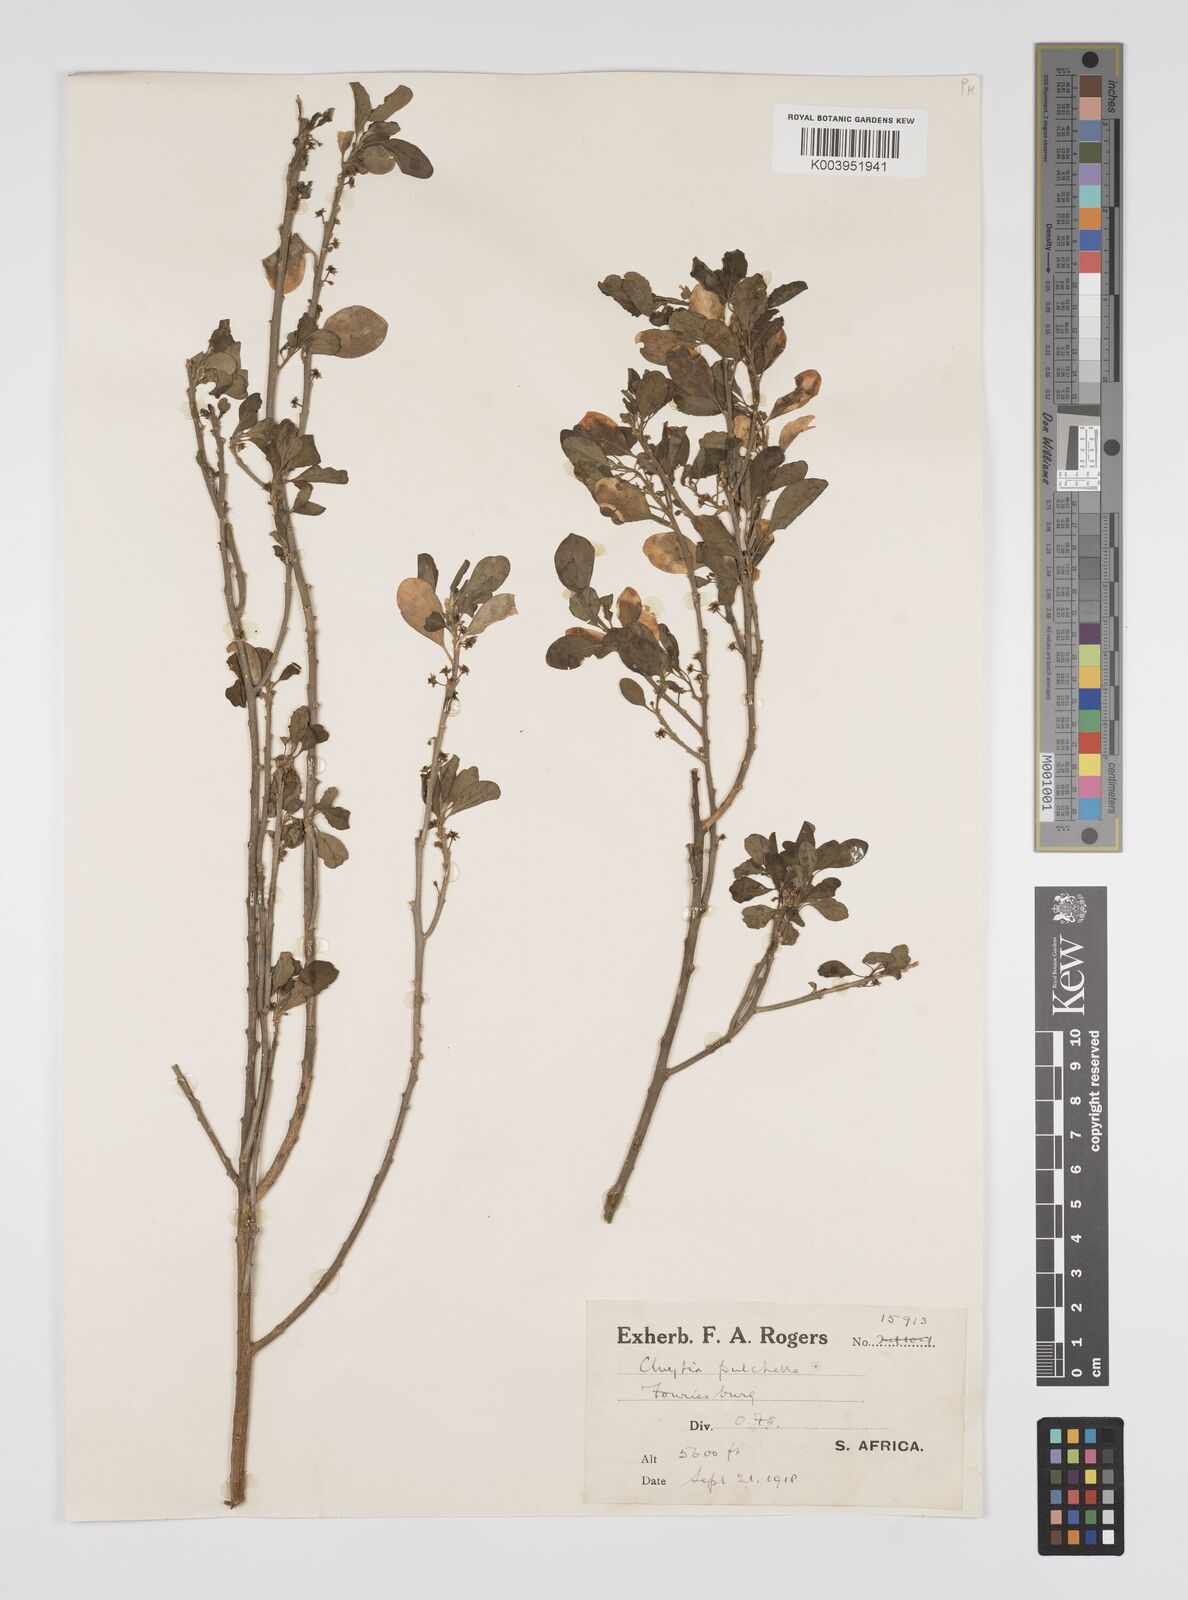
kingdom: Plantae
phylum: Tracheophyta
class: Magnoliopsida
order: Malpighiales
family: Peraceae
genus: Clutia
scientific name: Clutia pulchella
